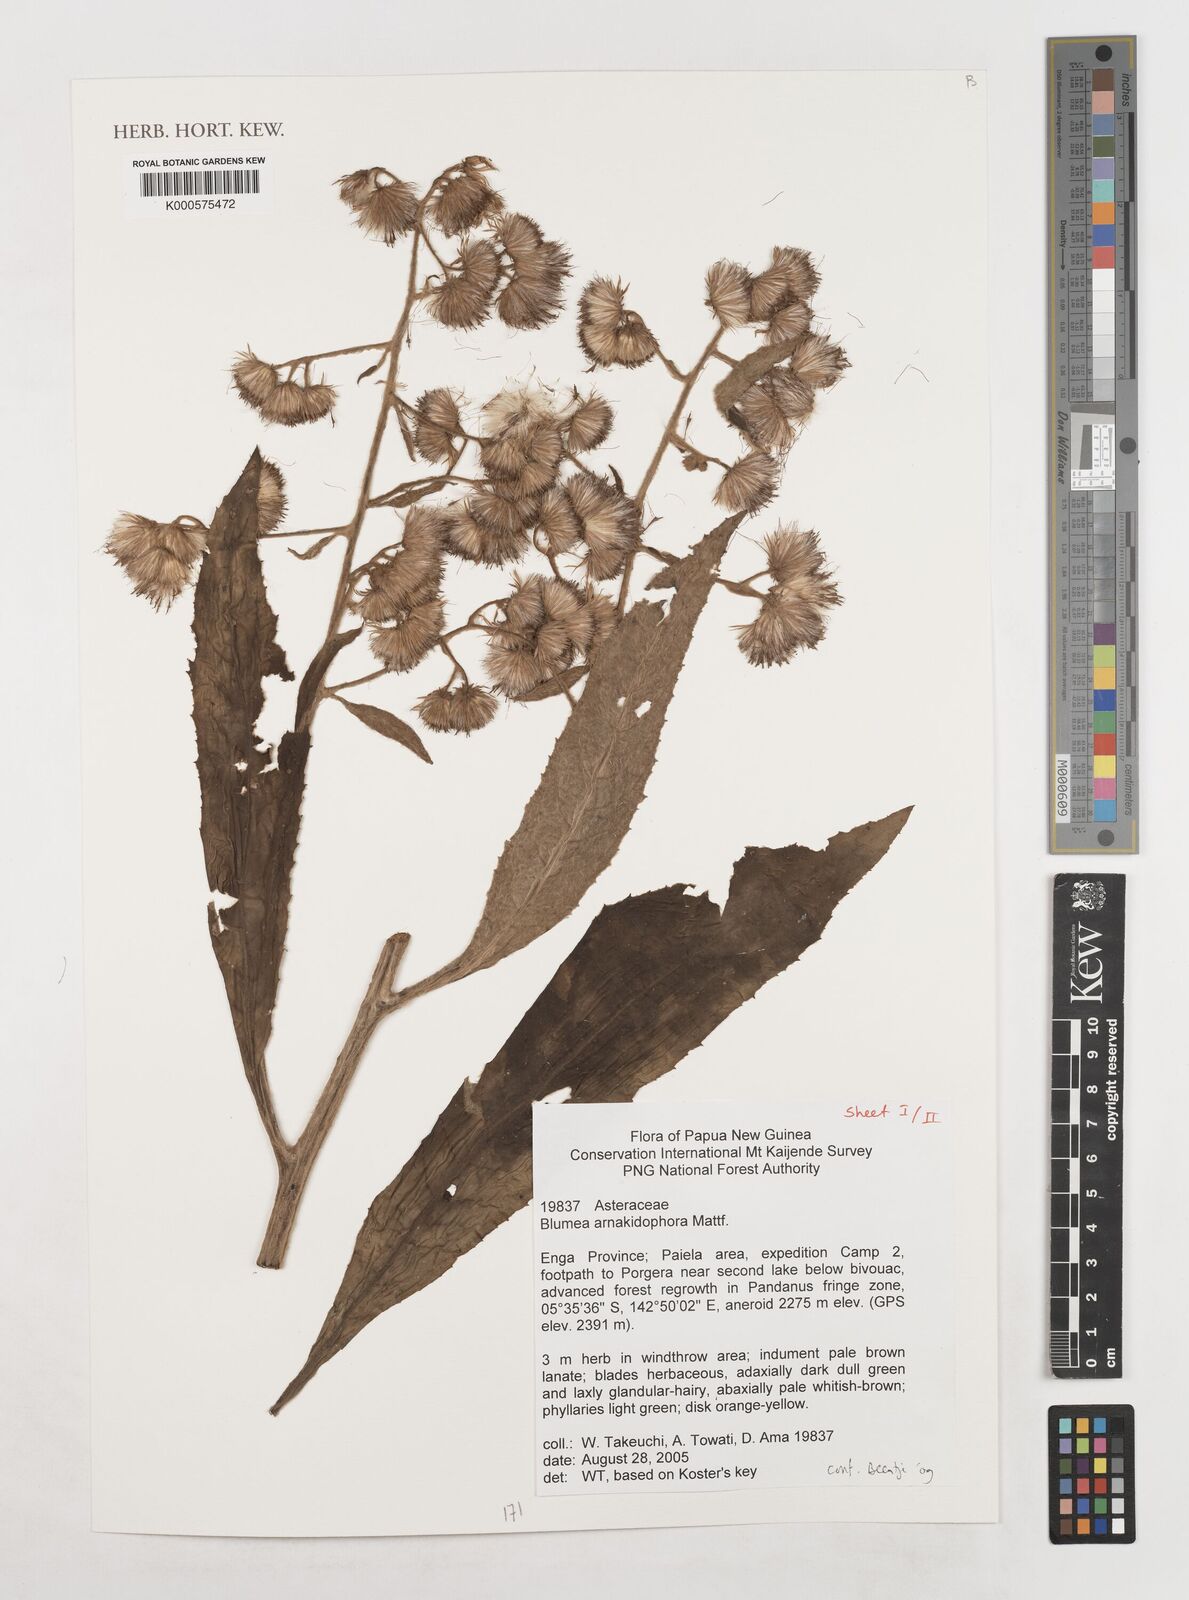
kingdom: Plantae
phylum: Tracheophyta
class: Magnoliopsida
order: Asterales
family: Asteraceae
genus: Blumea
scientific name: Blumea arnakidophora
